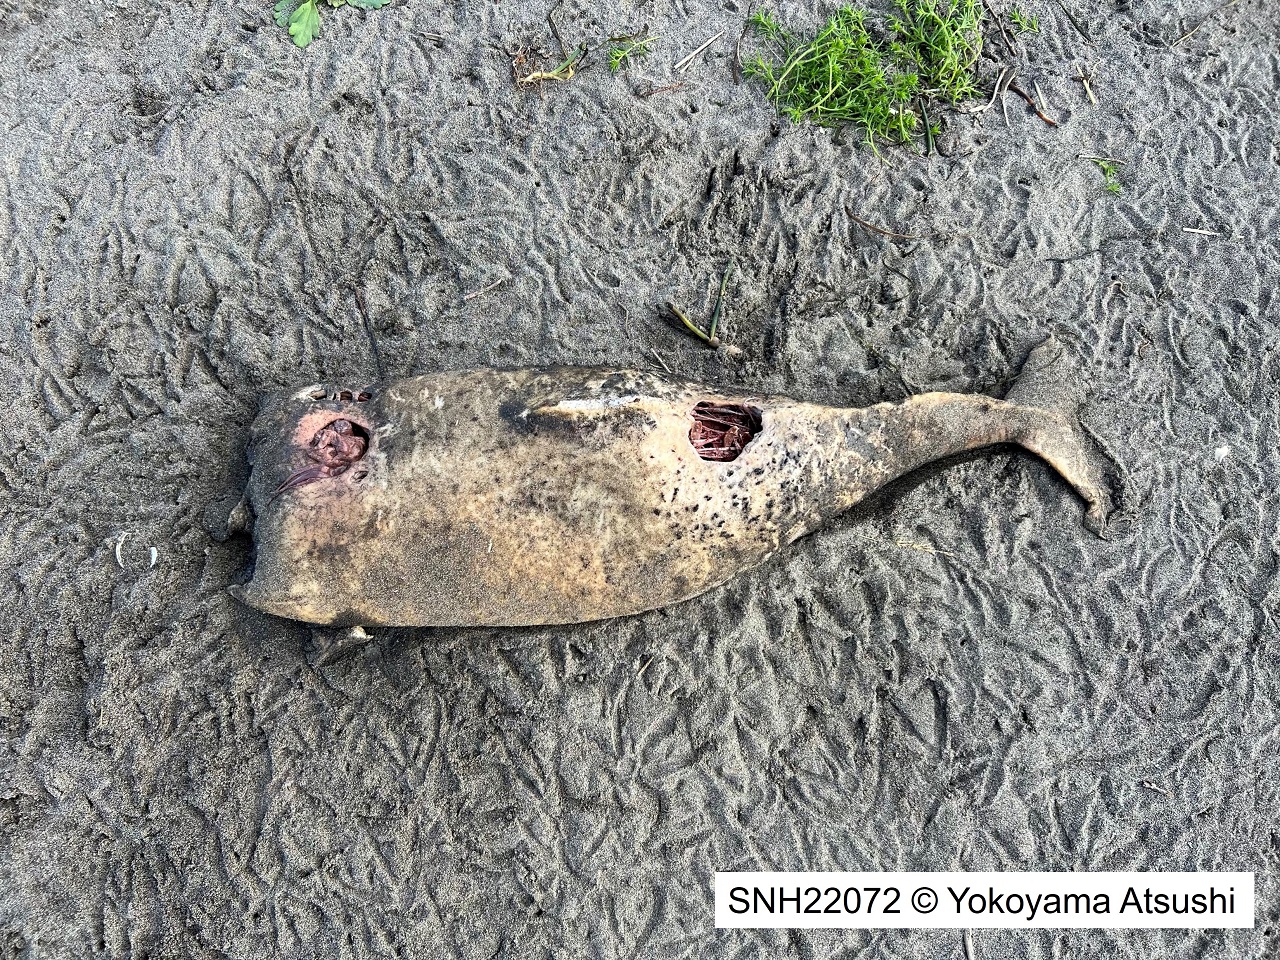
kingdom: Animalia
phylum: Chordata
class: Mammalia
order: Cetacea
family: Phocoenidae
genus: Phocoena
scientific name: Phocoena phocoena
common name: Harbour porpoise
